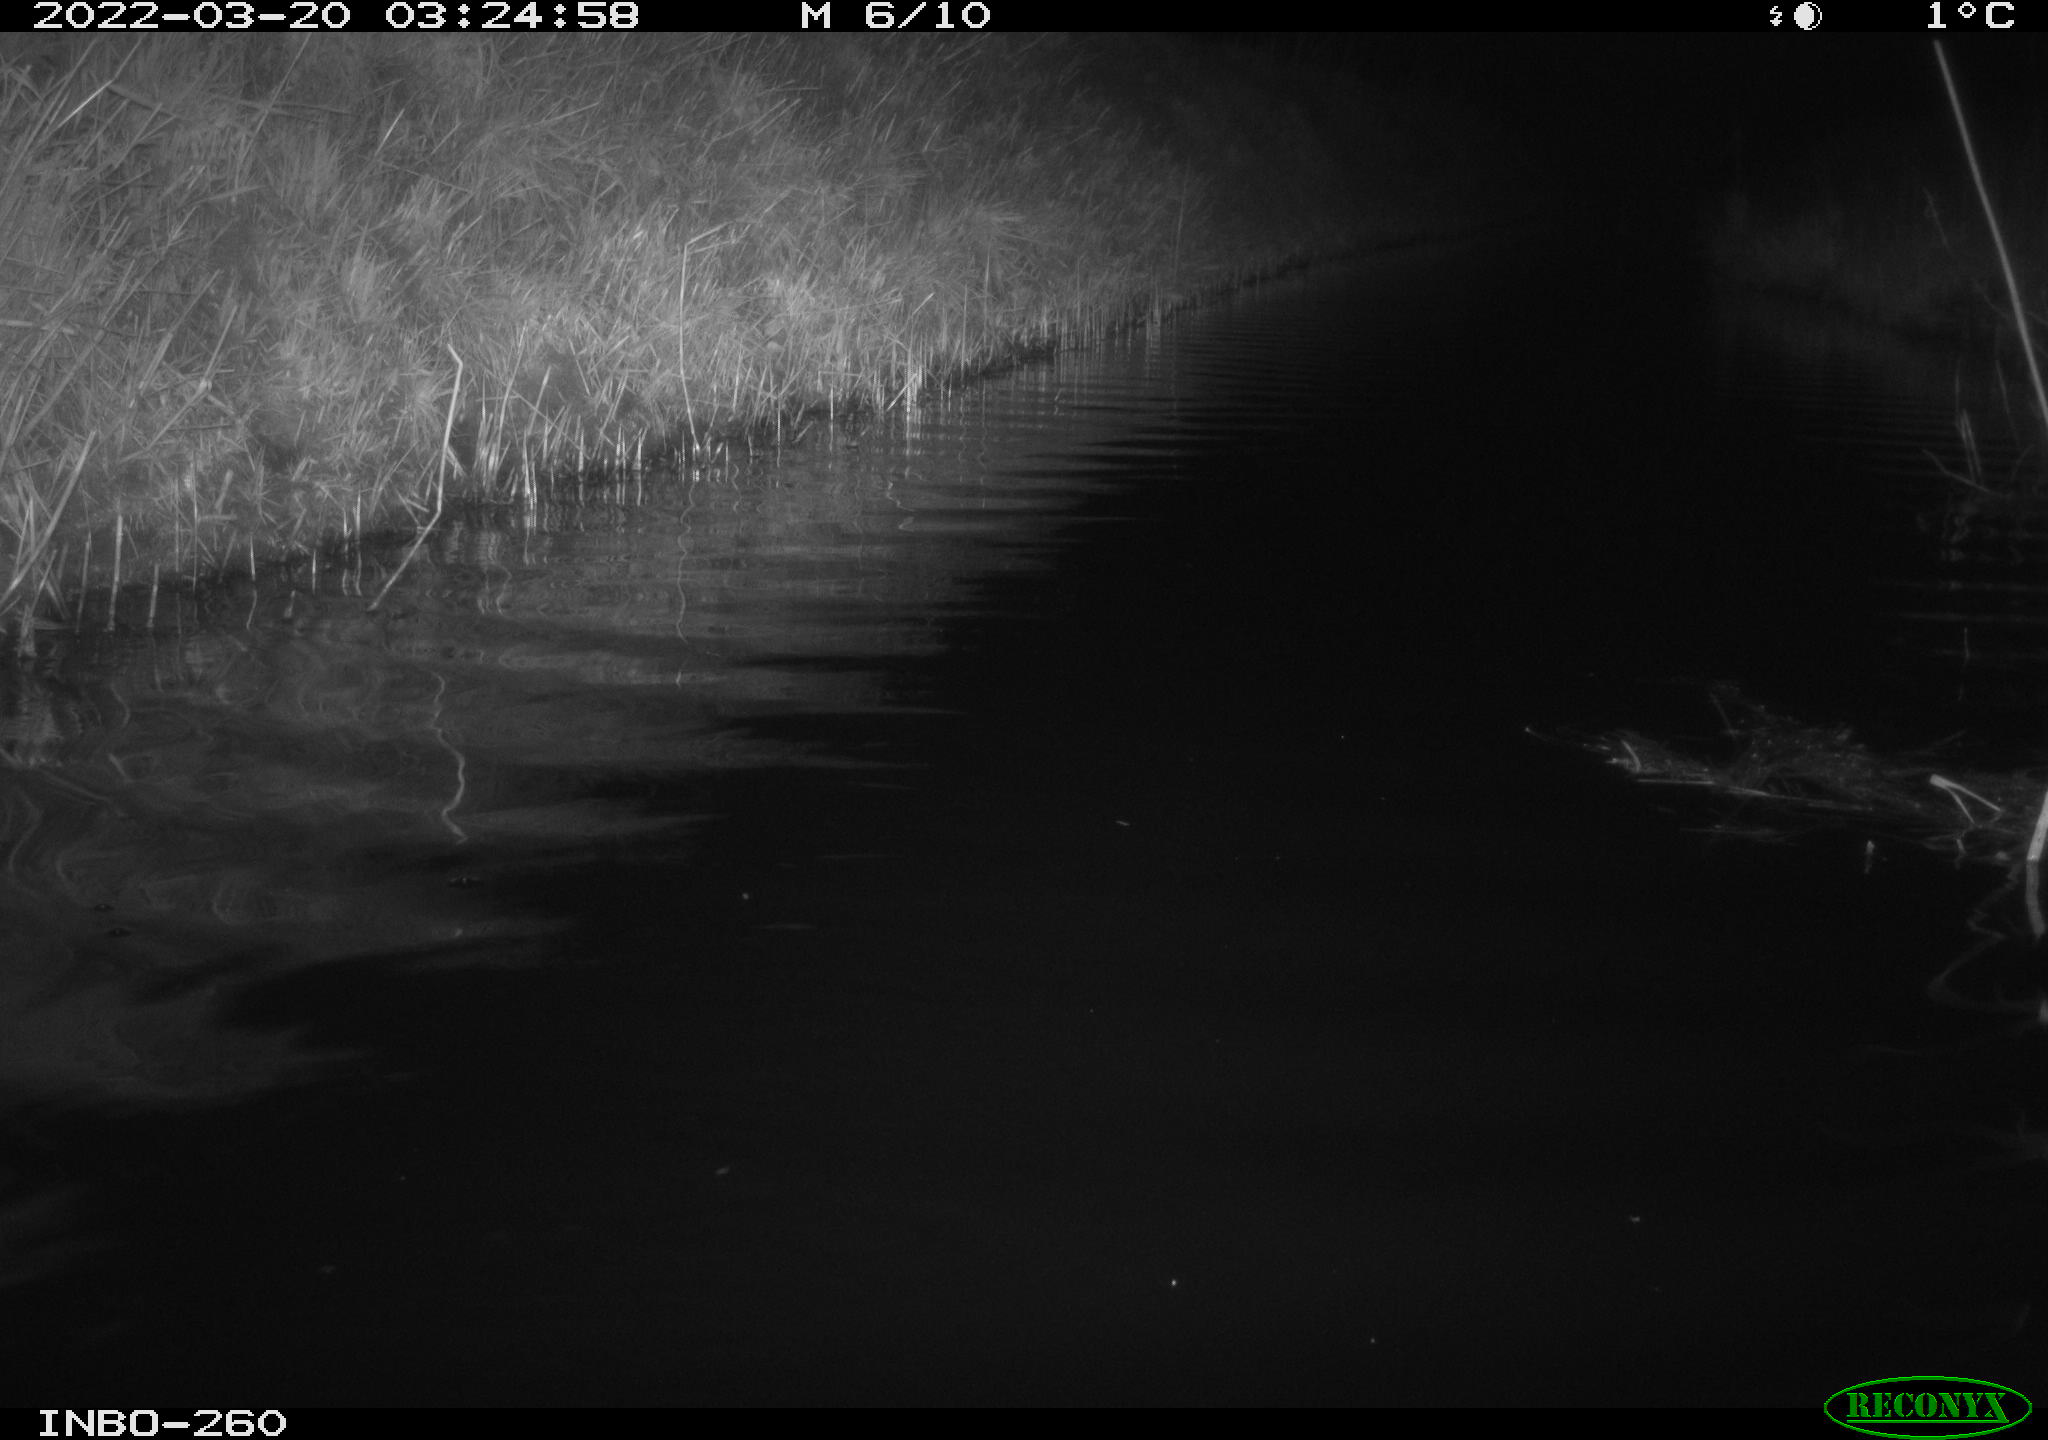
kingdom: Animalia
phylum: Chordata
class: Mammalia
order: Rodentia
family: Cricetidae
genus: Ondatra
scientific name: Ondatra zibethicus
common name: Muskrat
